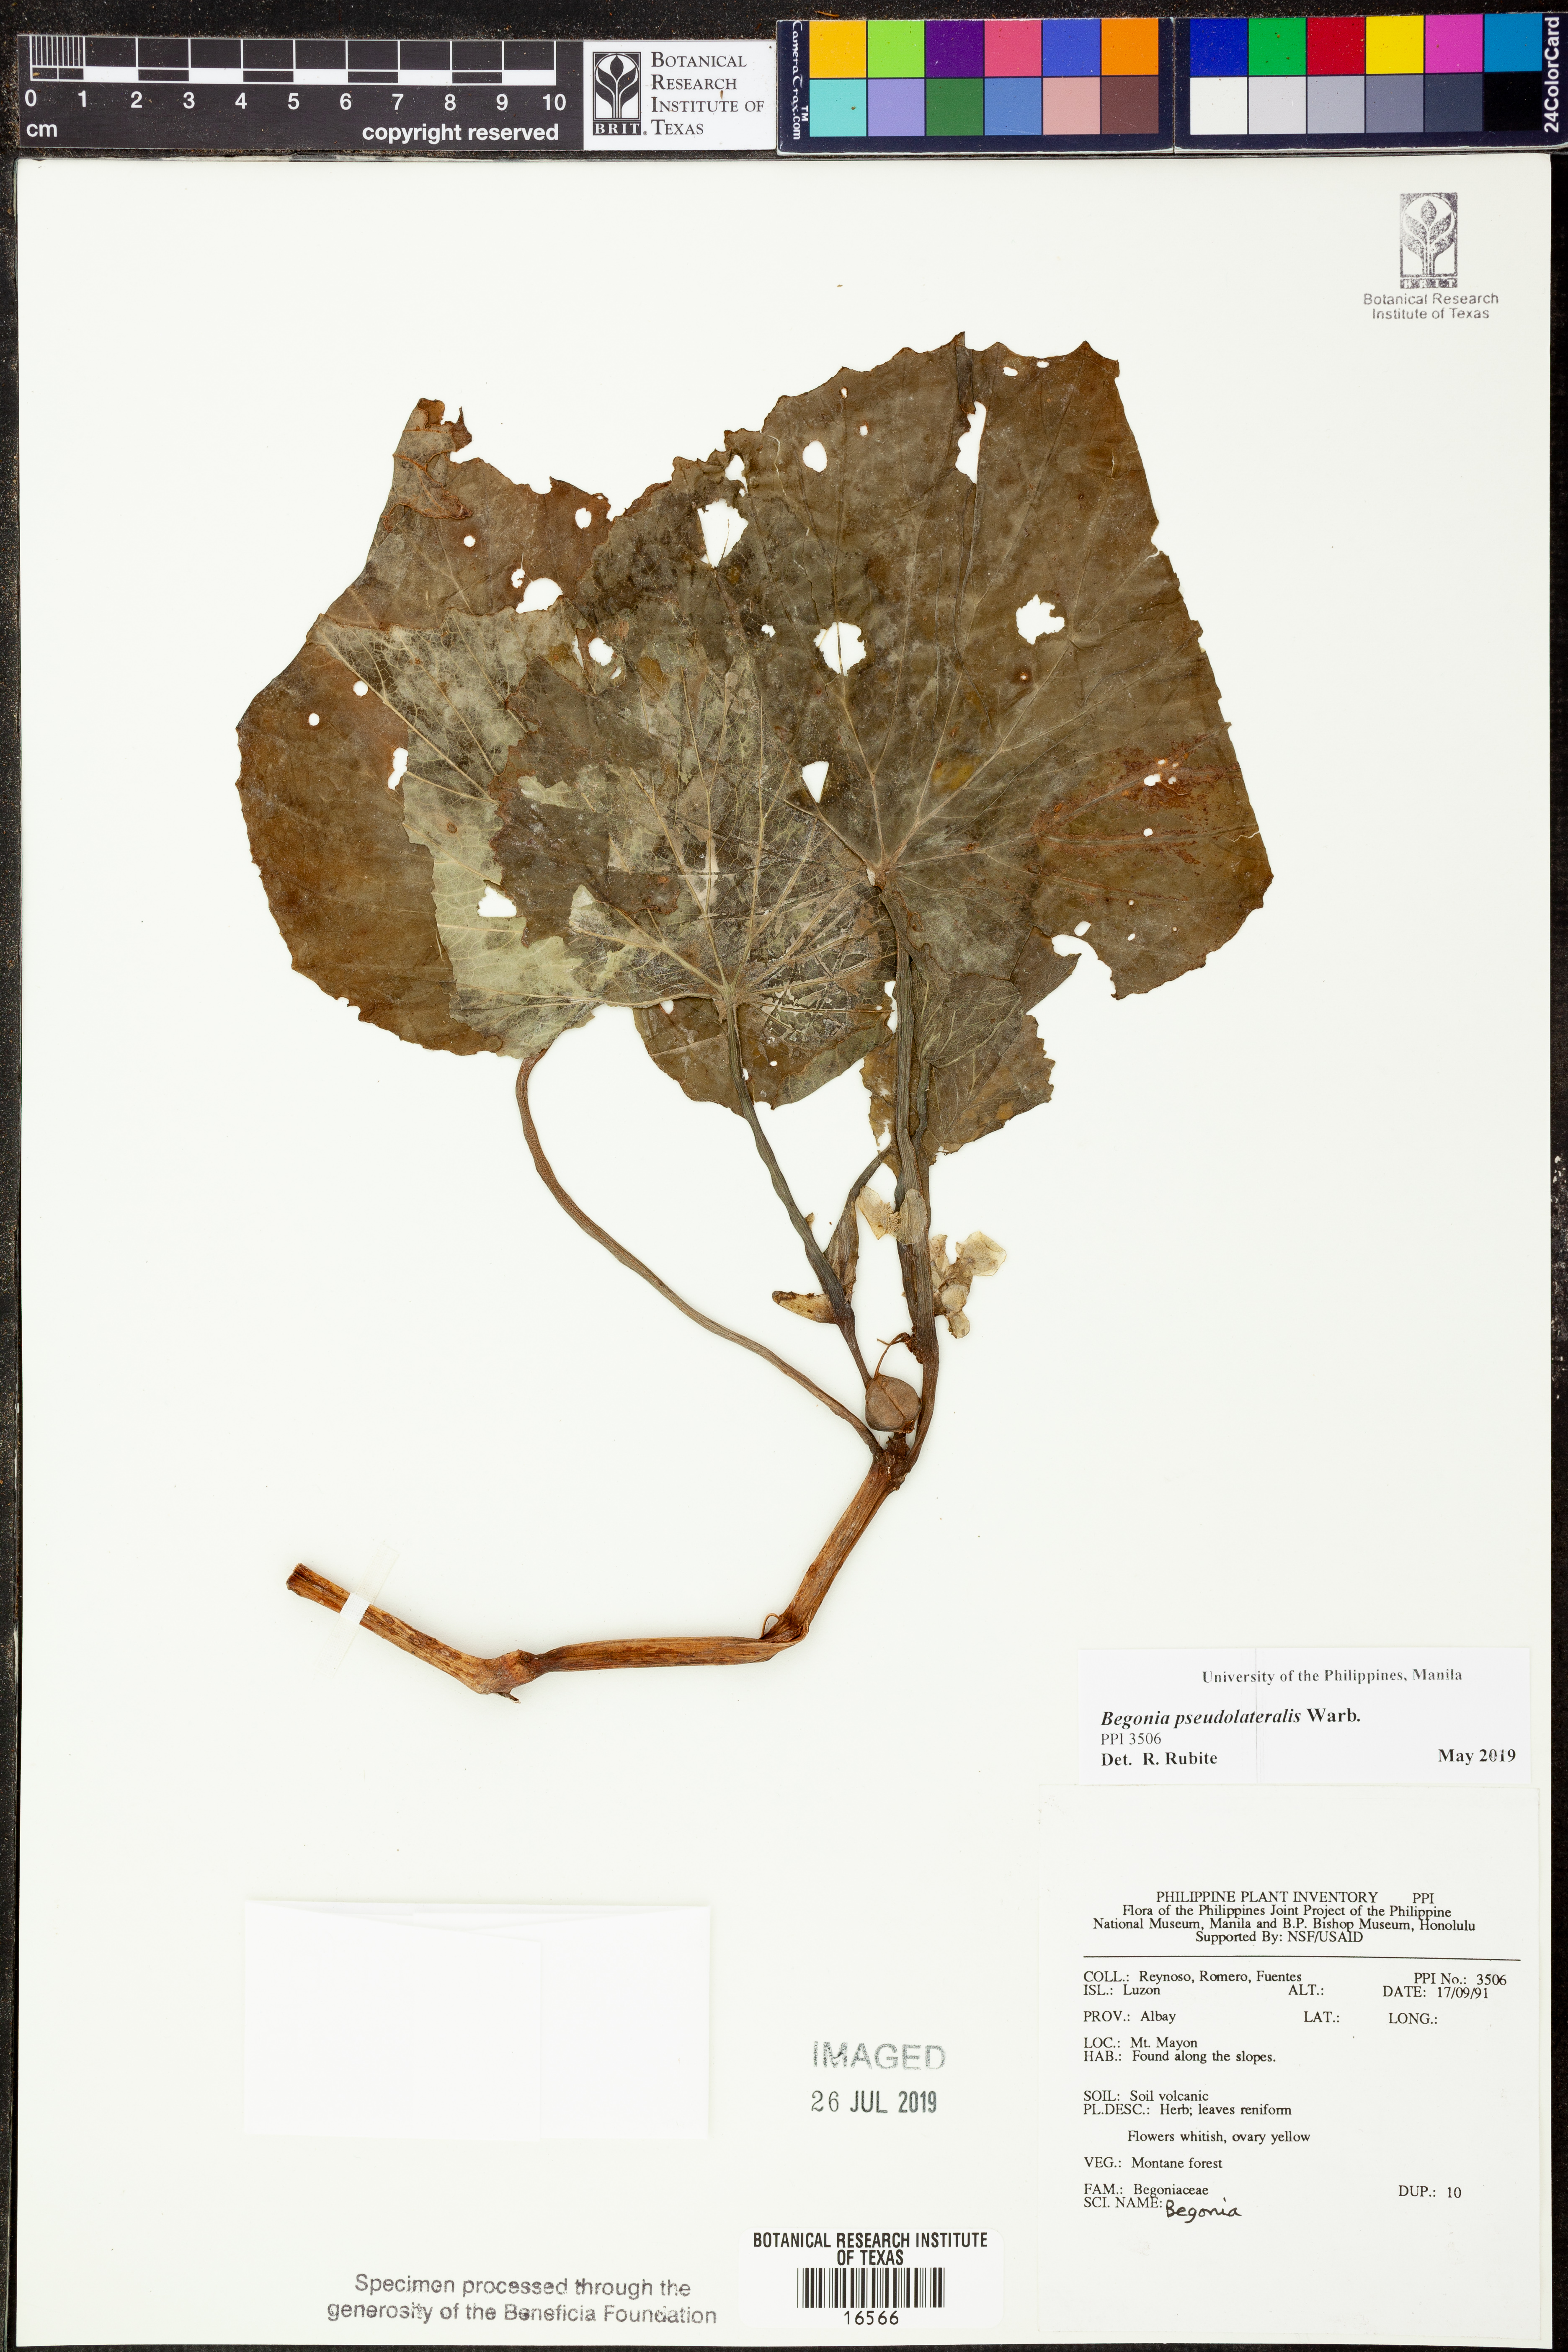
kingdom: Plantae
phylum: Tracheophyta
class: Magnoliopsida
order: Cucurbitales
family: Begoniaceae
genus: Begonia
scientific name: Begonia
